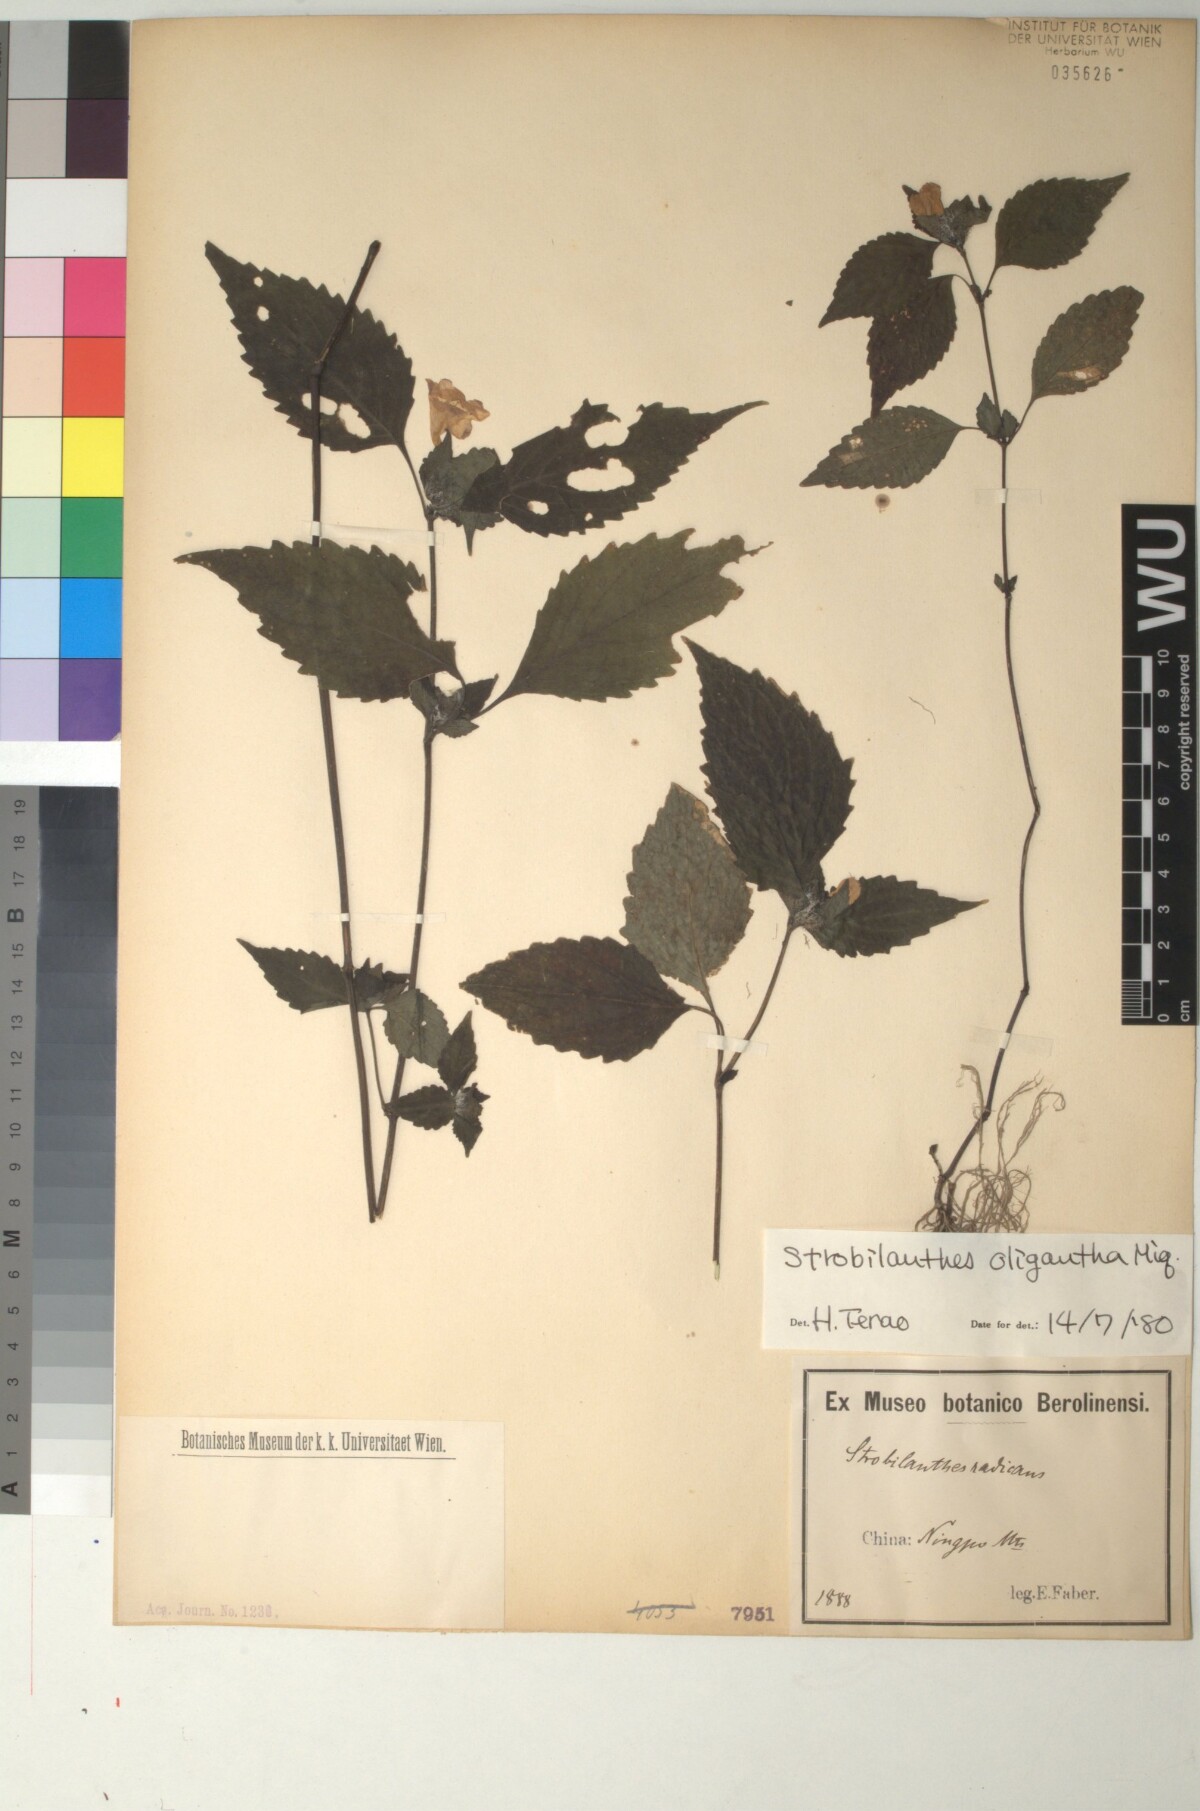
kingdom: Plantae
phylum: Tracheophyta
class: Magnoliopsida
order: Lamiales
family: Acanthaceae
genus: Strobilanthes
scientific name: Strobilanthes oligantha
